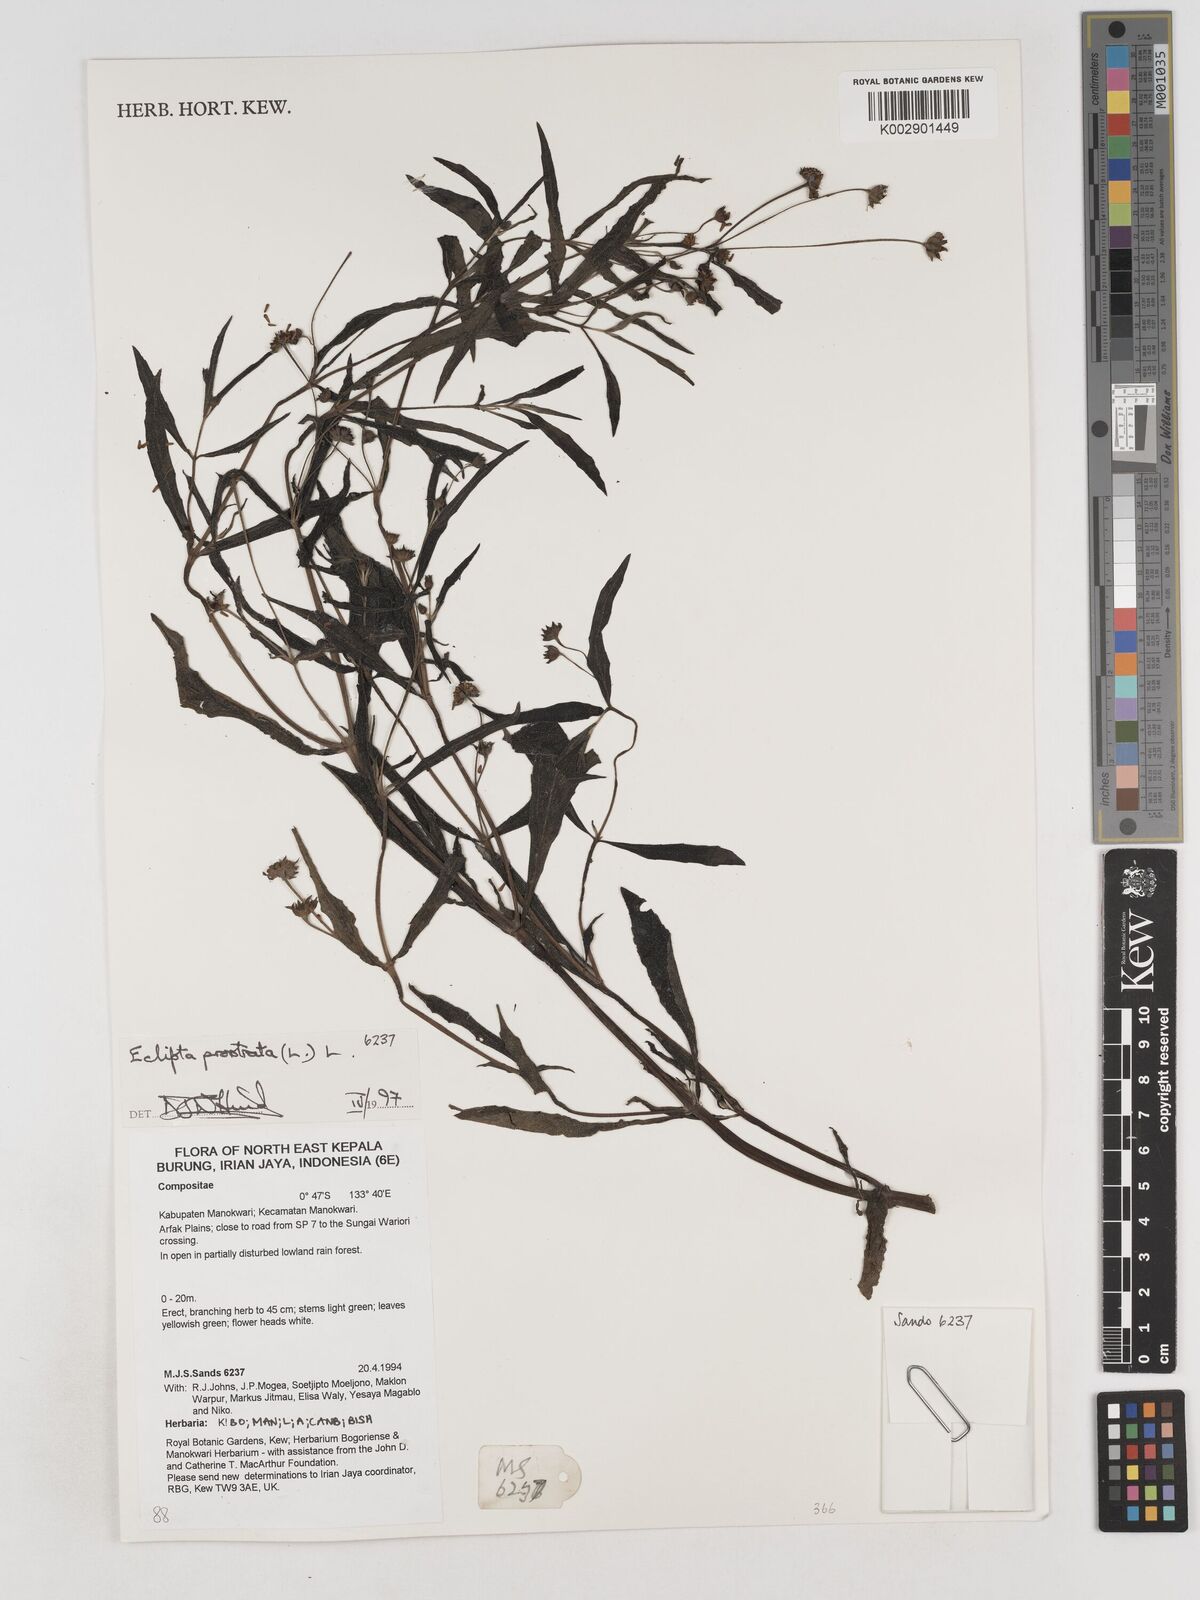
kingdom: Plantae
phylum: Tracheophyta
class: Magnoliopsida
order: Asterales
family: Asteraceae
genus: Eclipta
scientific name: Eclipta prostrata
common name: False daisy
